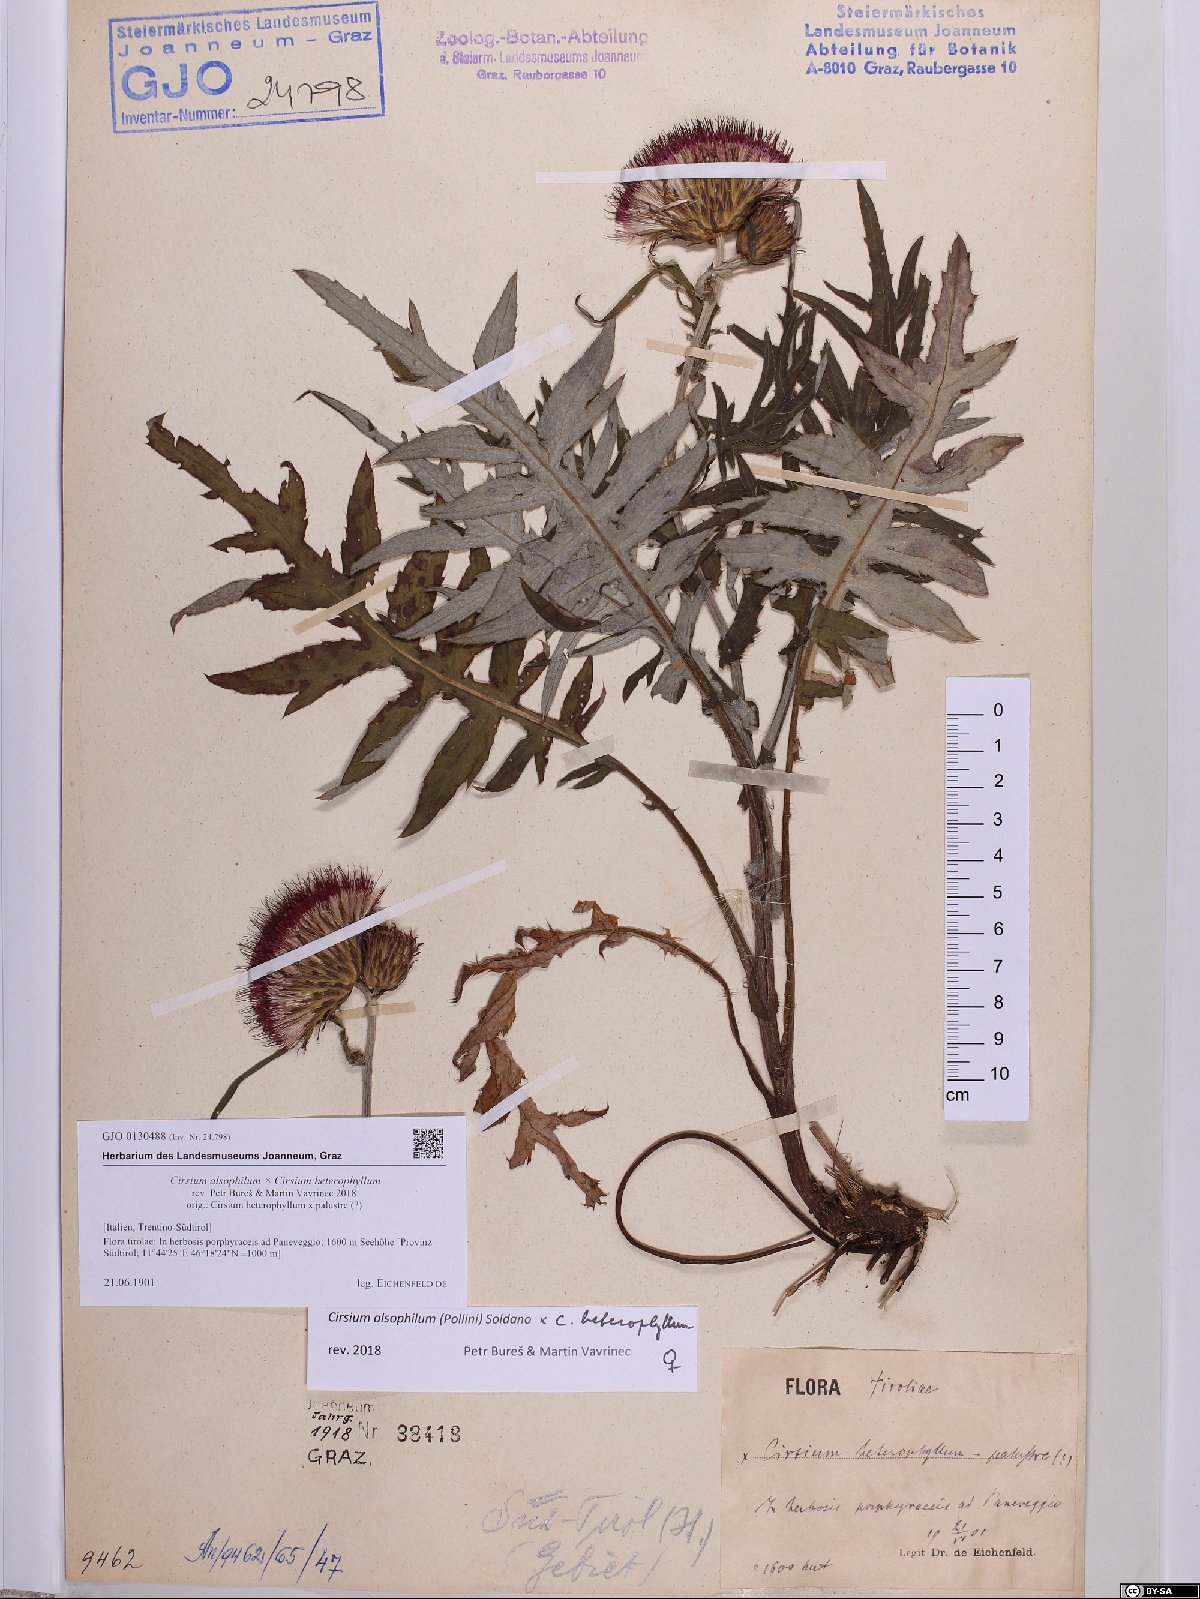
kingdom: Plantae
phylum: Tracheophyta
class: Magnoliopsida
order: Asterales
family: Asteraceae
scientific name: Asteraceae
